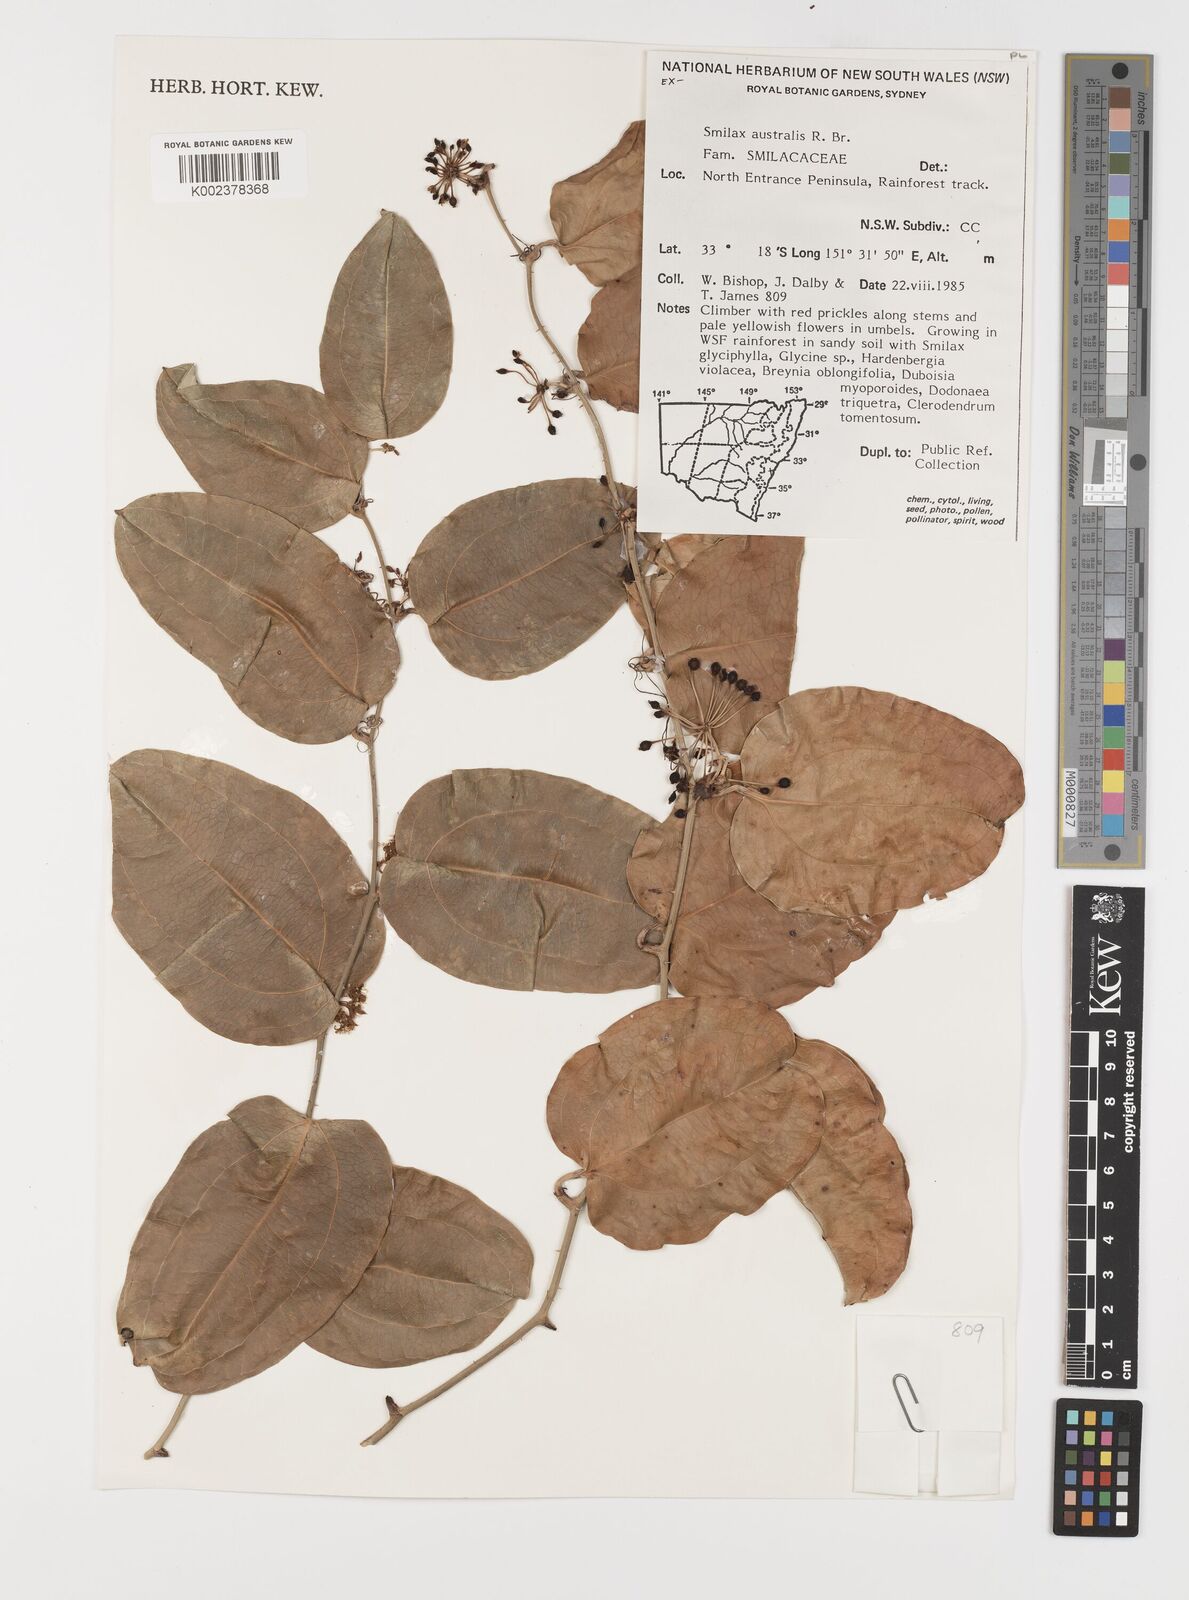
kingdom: Plantae
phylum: Tracheophyta
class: Liliopsida
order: Liliales
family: Smilacaceae
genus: Smilax
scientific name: Smilax australis
